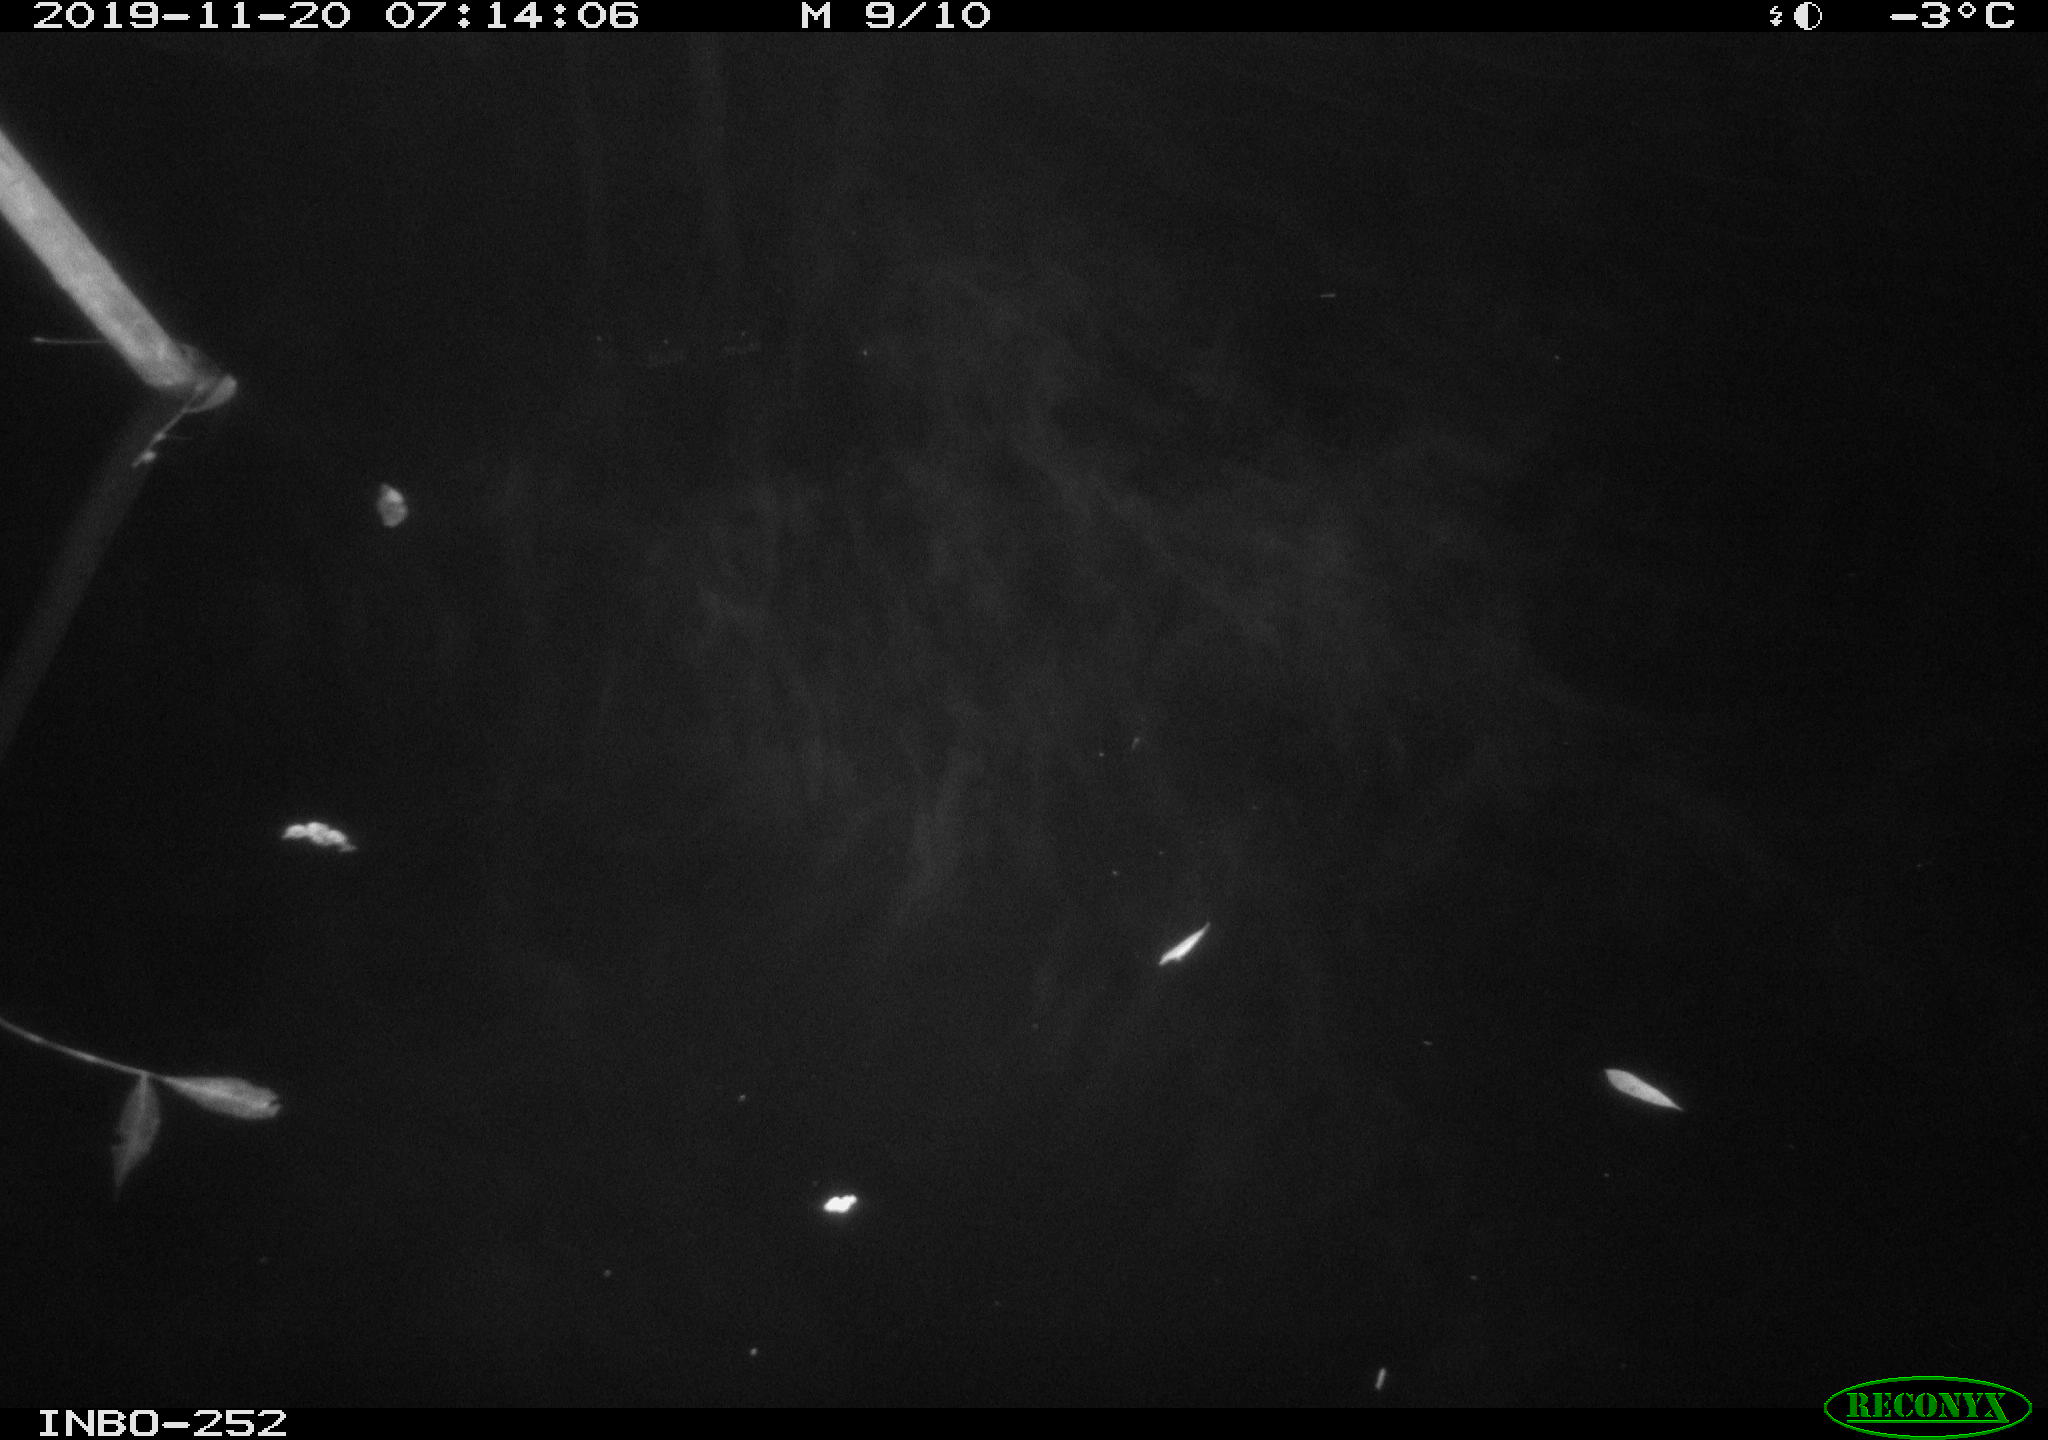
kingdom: Animalia
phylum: Chordata
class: Aves
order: Anseriformes
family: Anatidae
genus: Anas
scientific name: Anas platyrhynchos
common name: Mallard
